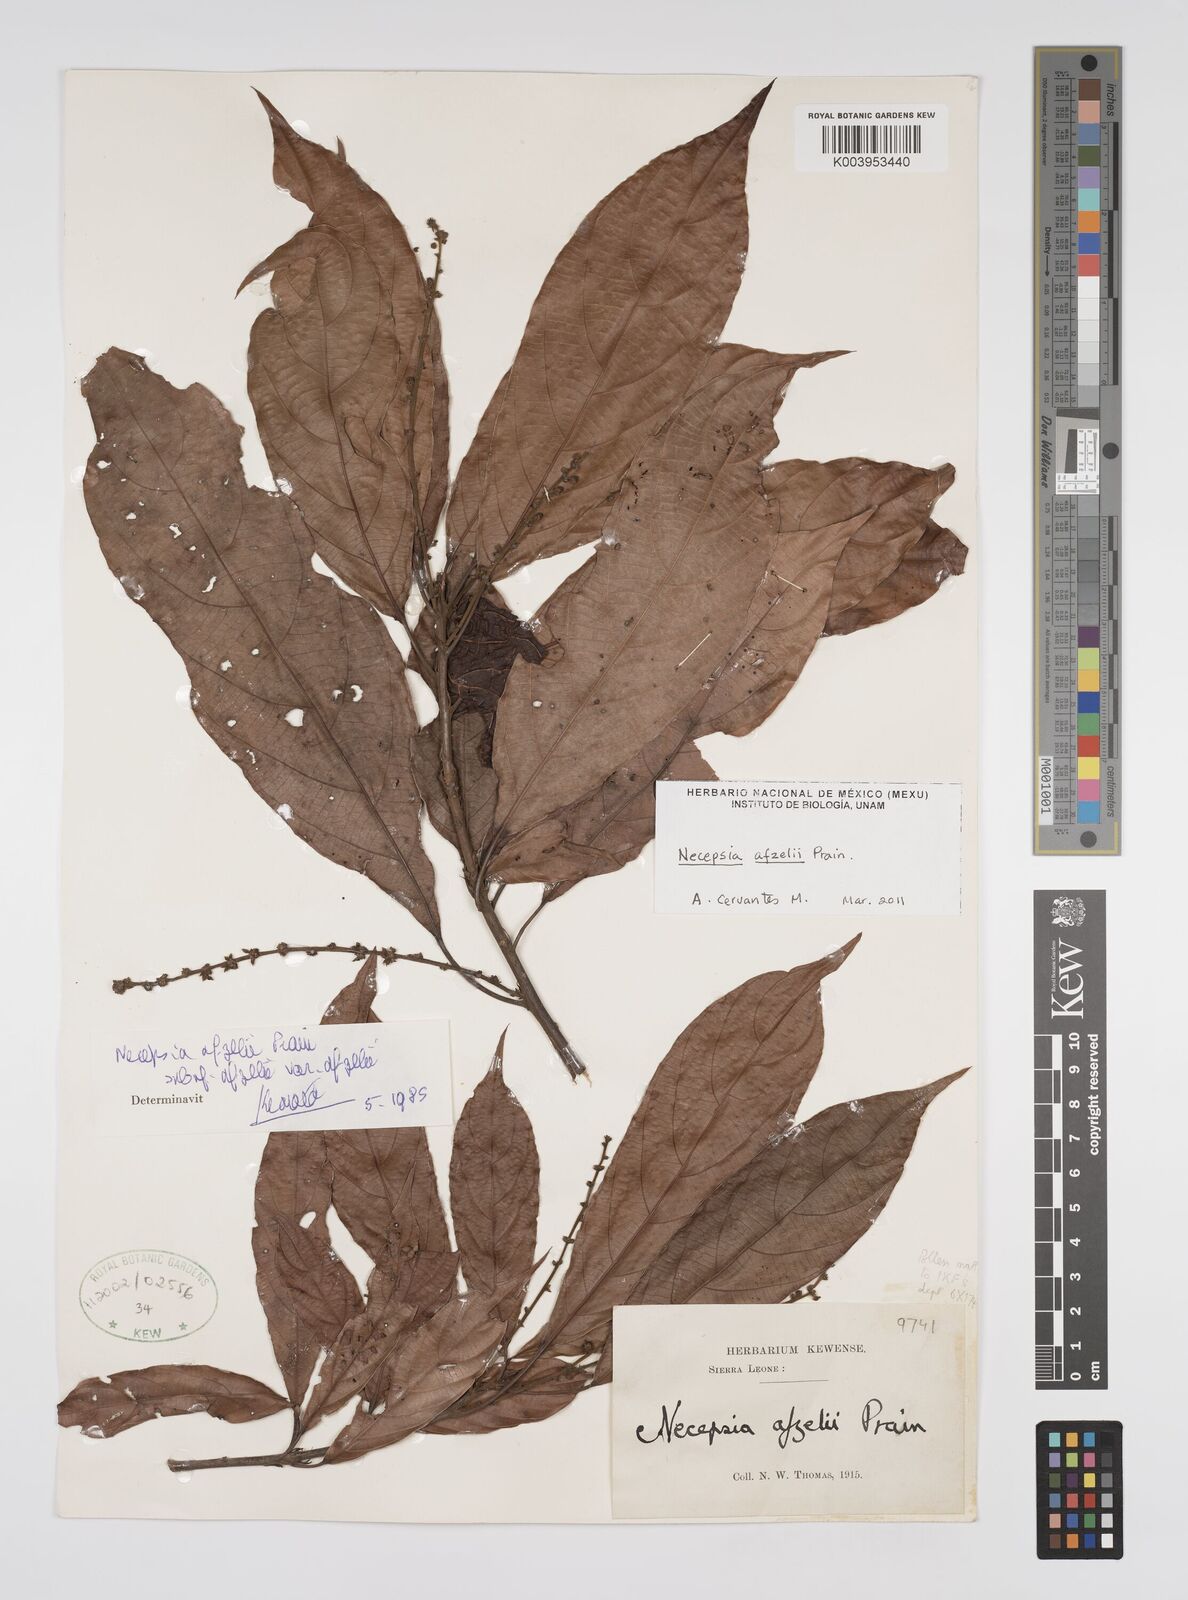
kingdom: Plantae
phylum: Tracheophyta
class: Magnoliopsida
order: Malpighiales
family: Euphorbiaceae
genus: Necepsia
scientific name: Necepsia afzelii
